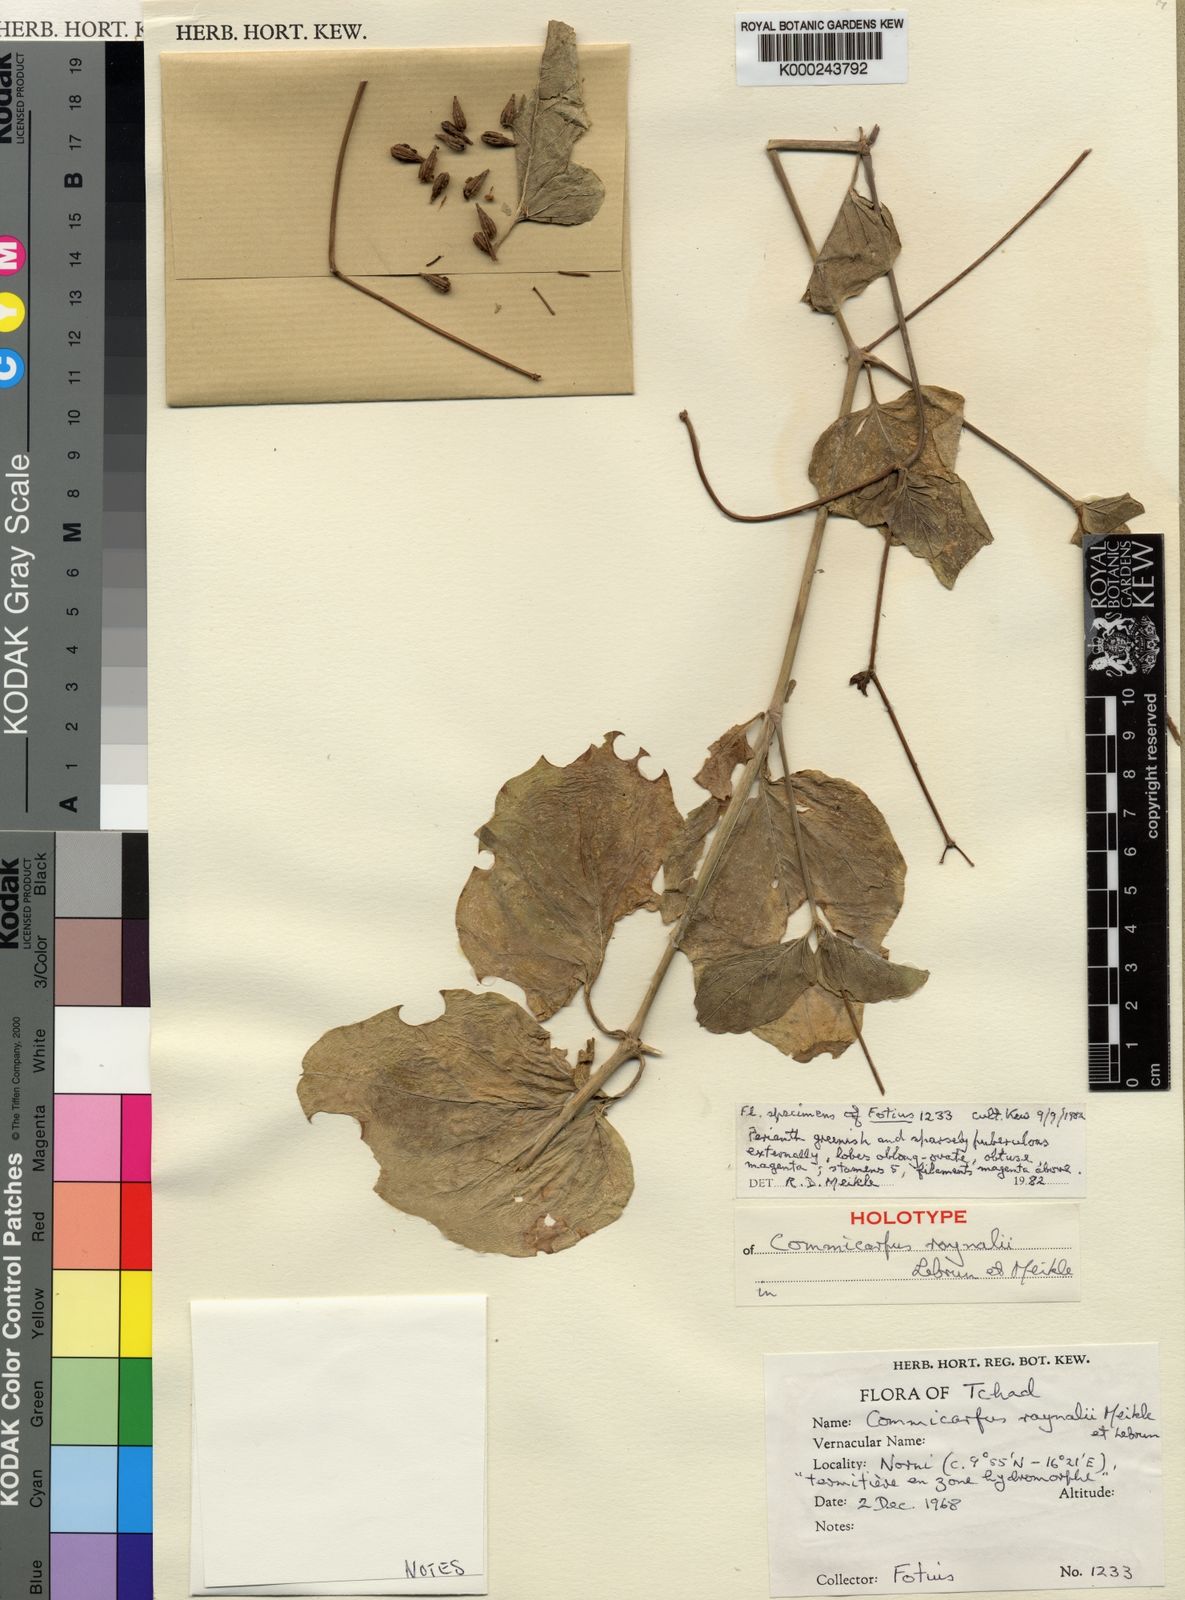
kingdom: Plantae
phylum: Tracheophyta
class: Magnoliopsida
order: Caryophyllales
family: Nyctaginaceae
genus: Commicarpus
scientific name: Commicarpus raynalii
